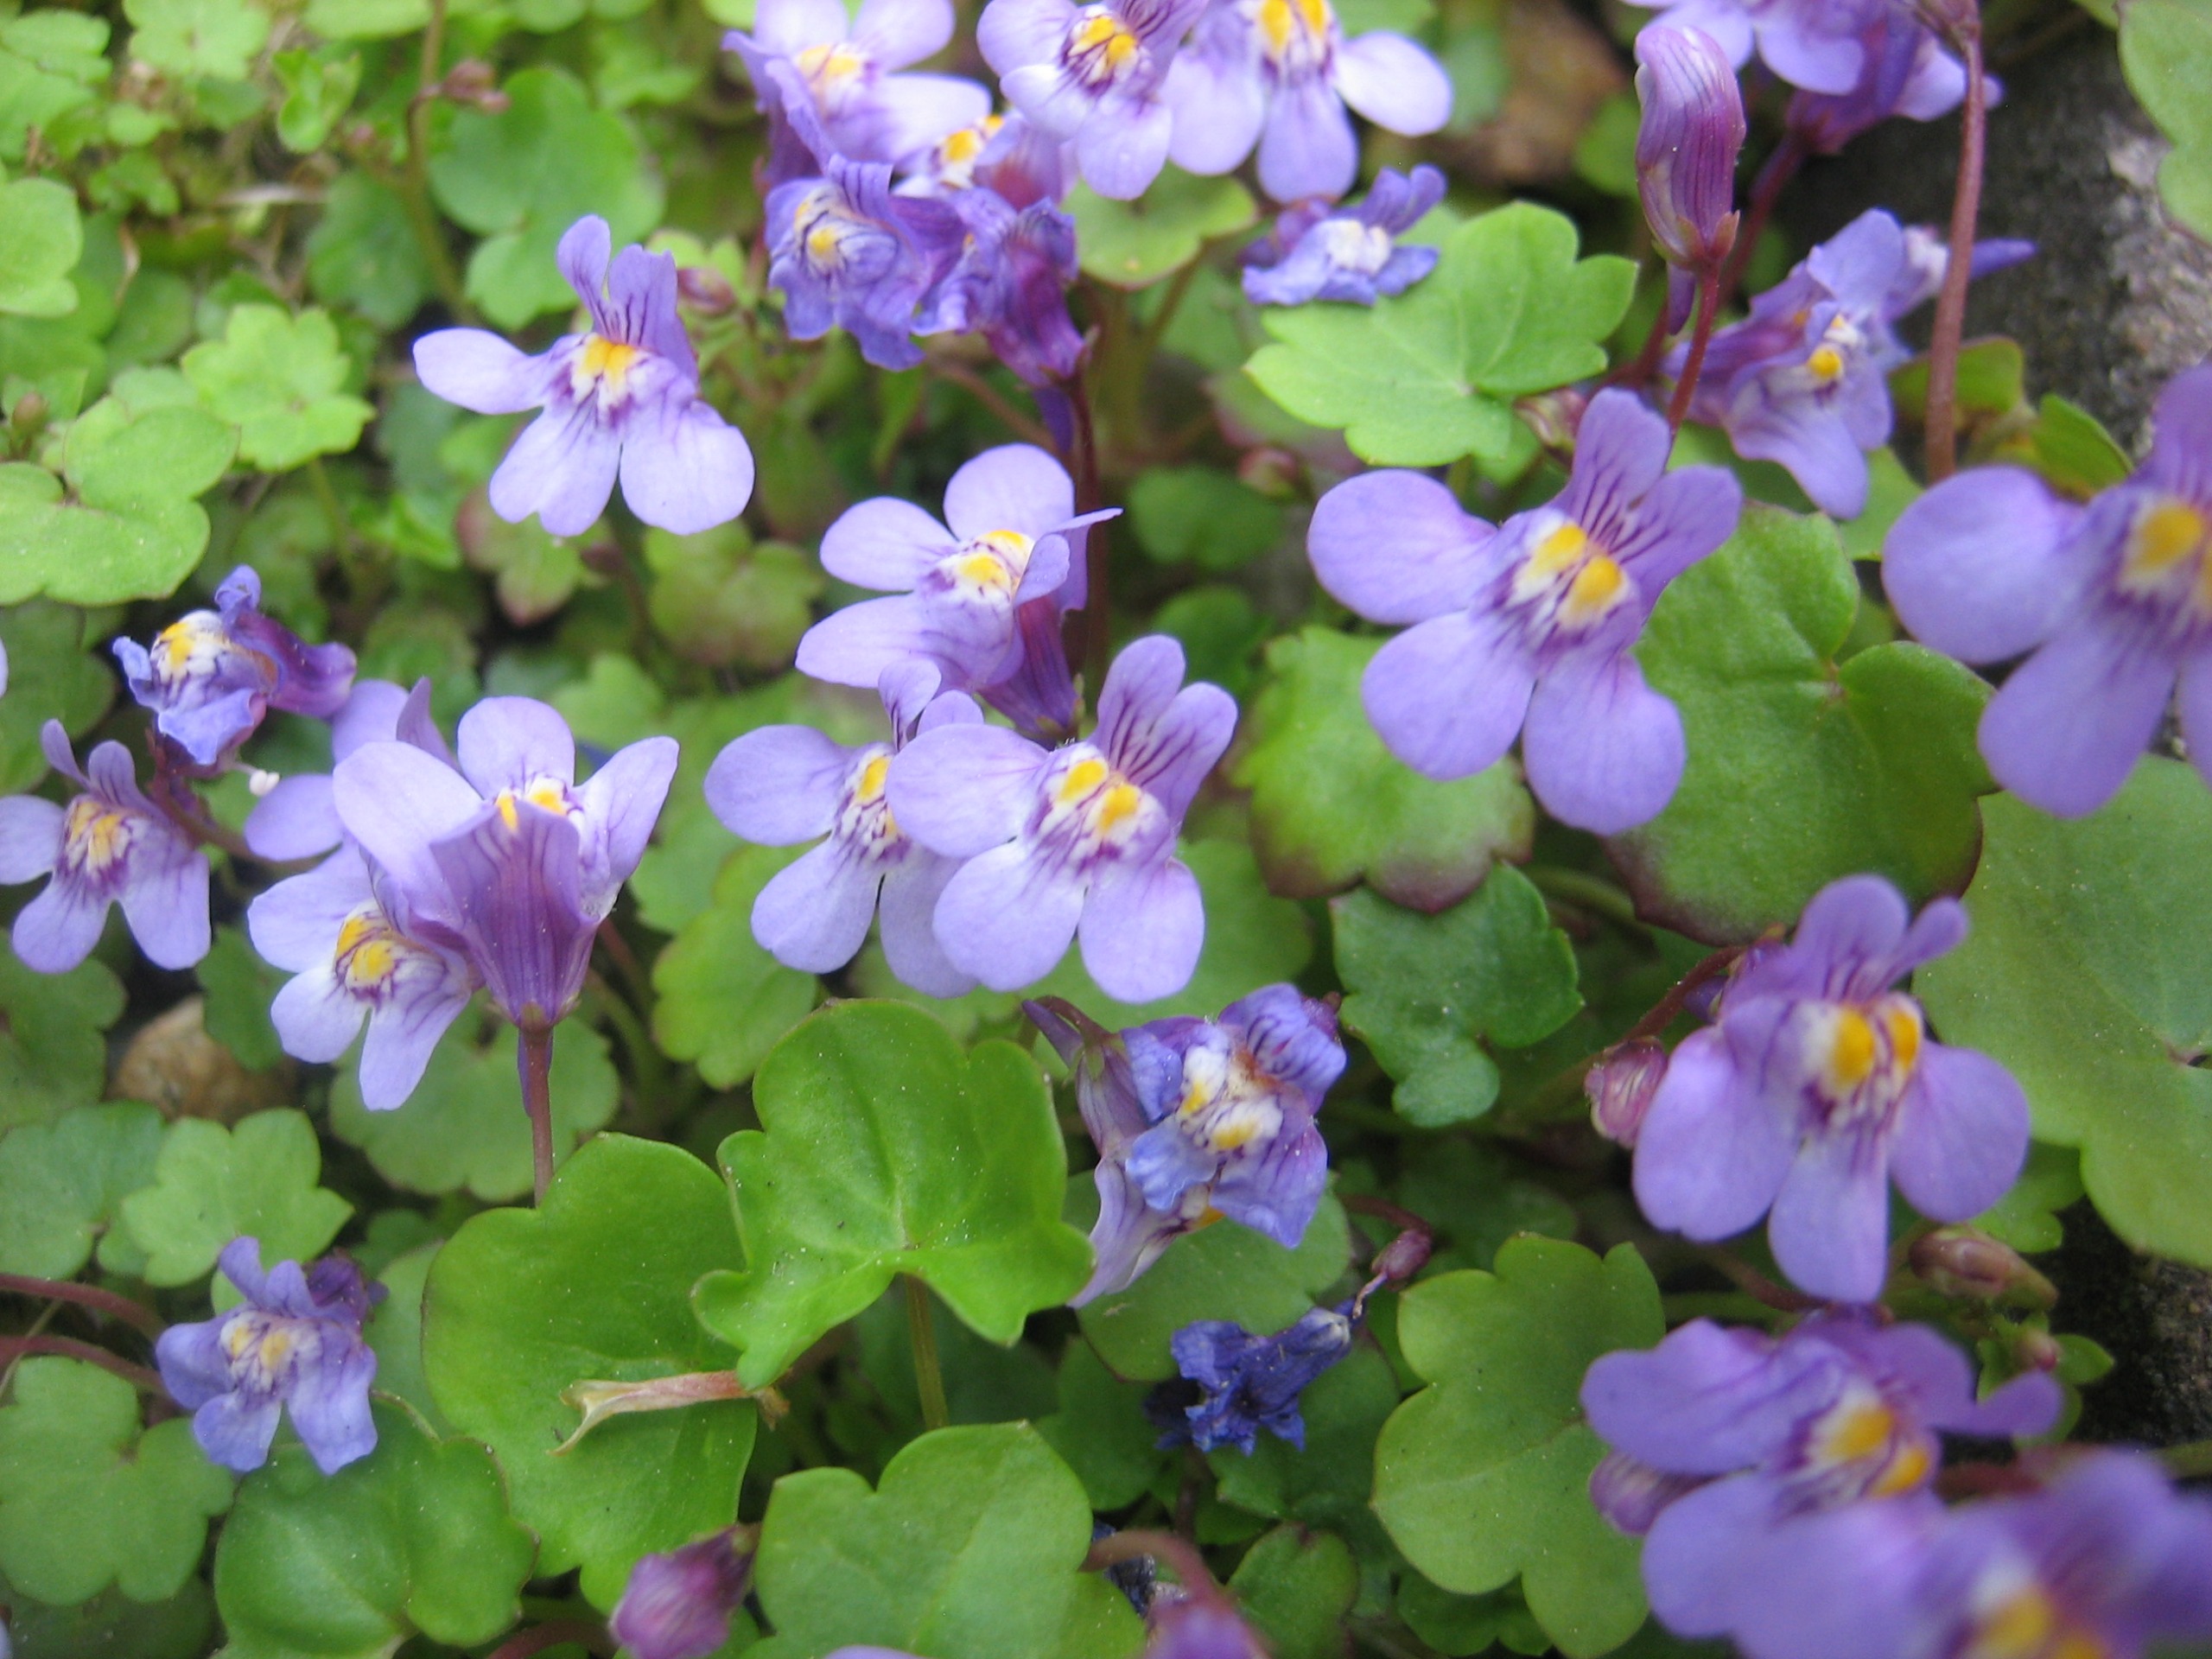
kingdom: Plantae
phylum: Tracheophyta
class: Magnoliopsida
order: Lamiales
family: Plantaginaceae
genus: Cymbalaria
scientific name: Cymbalaria muralis
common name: Vedbend-torskemund
